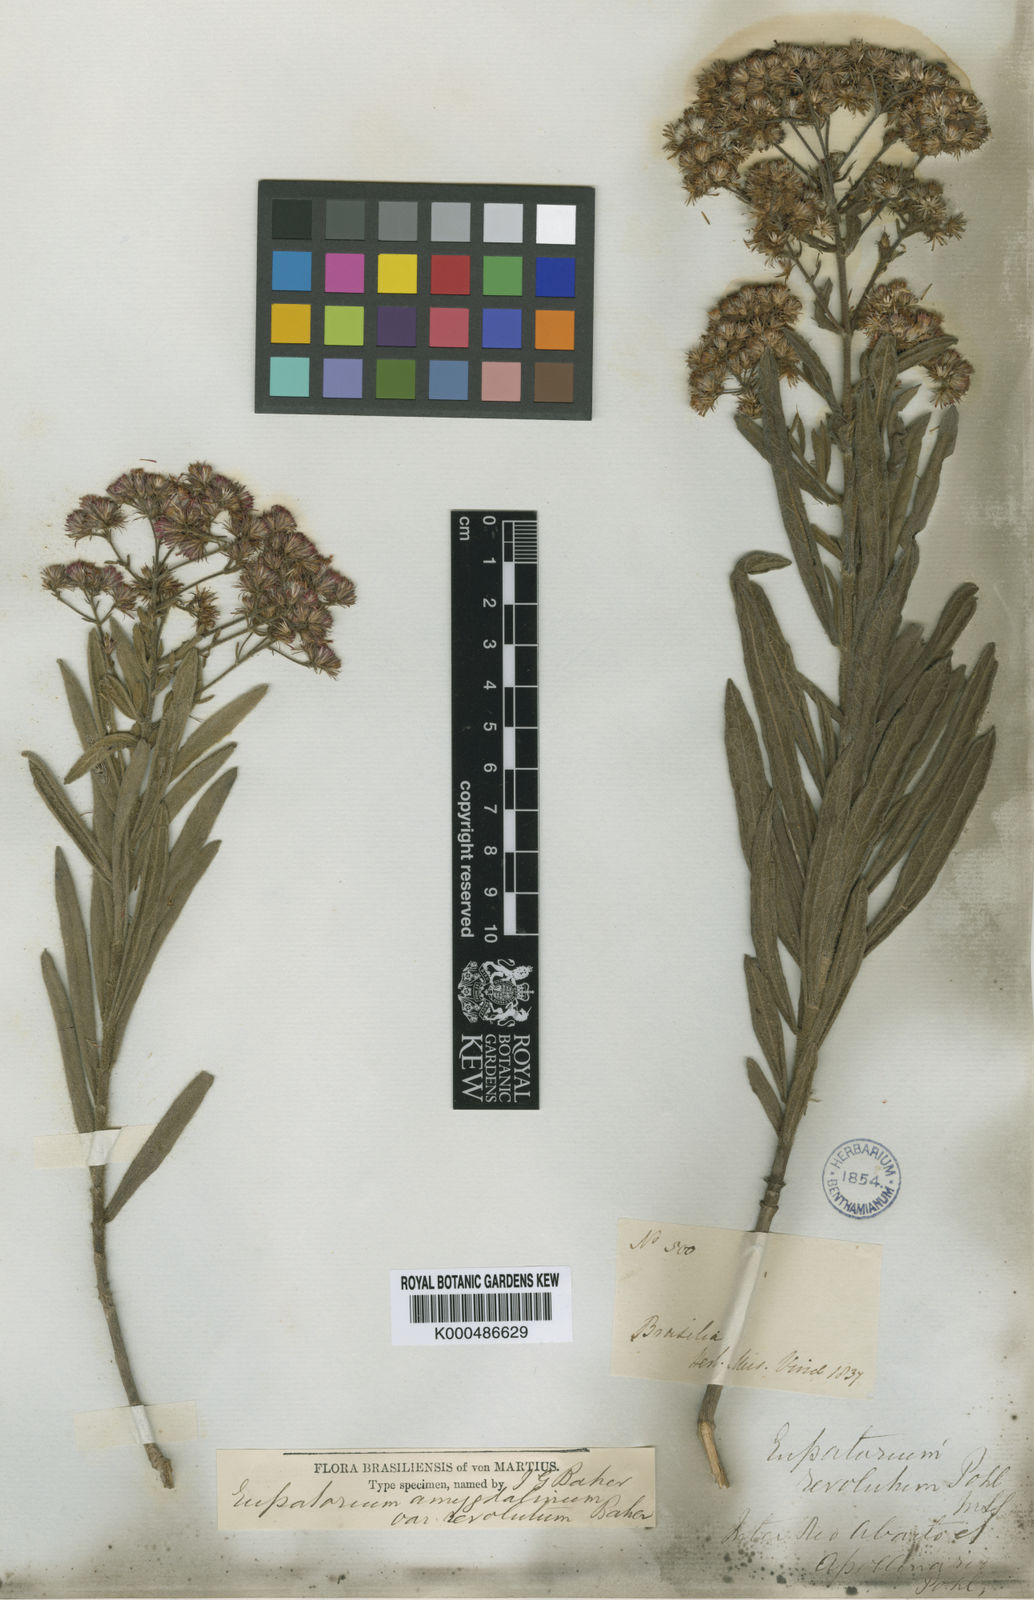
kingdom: Plantae
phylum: Tracheophyta
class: Magnoliopsida
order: Asterales
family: Asteraceae
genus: Ayapana
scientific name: Ayapana stenolepis
